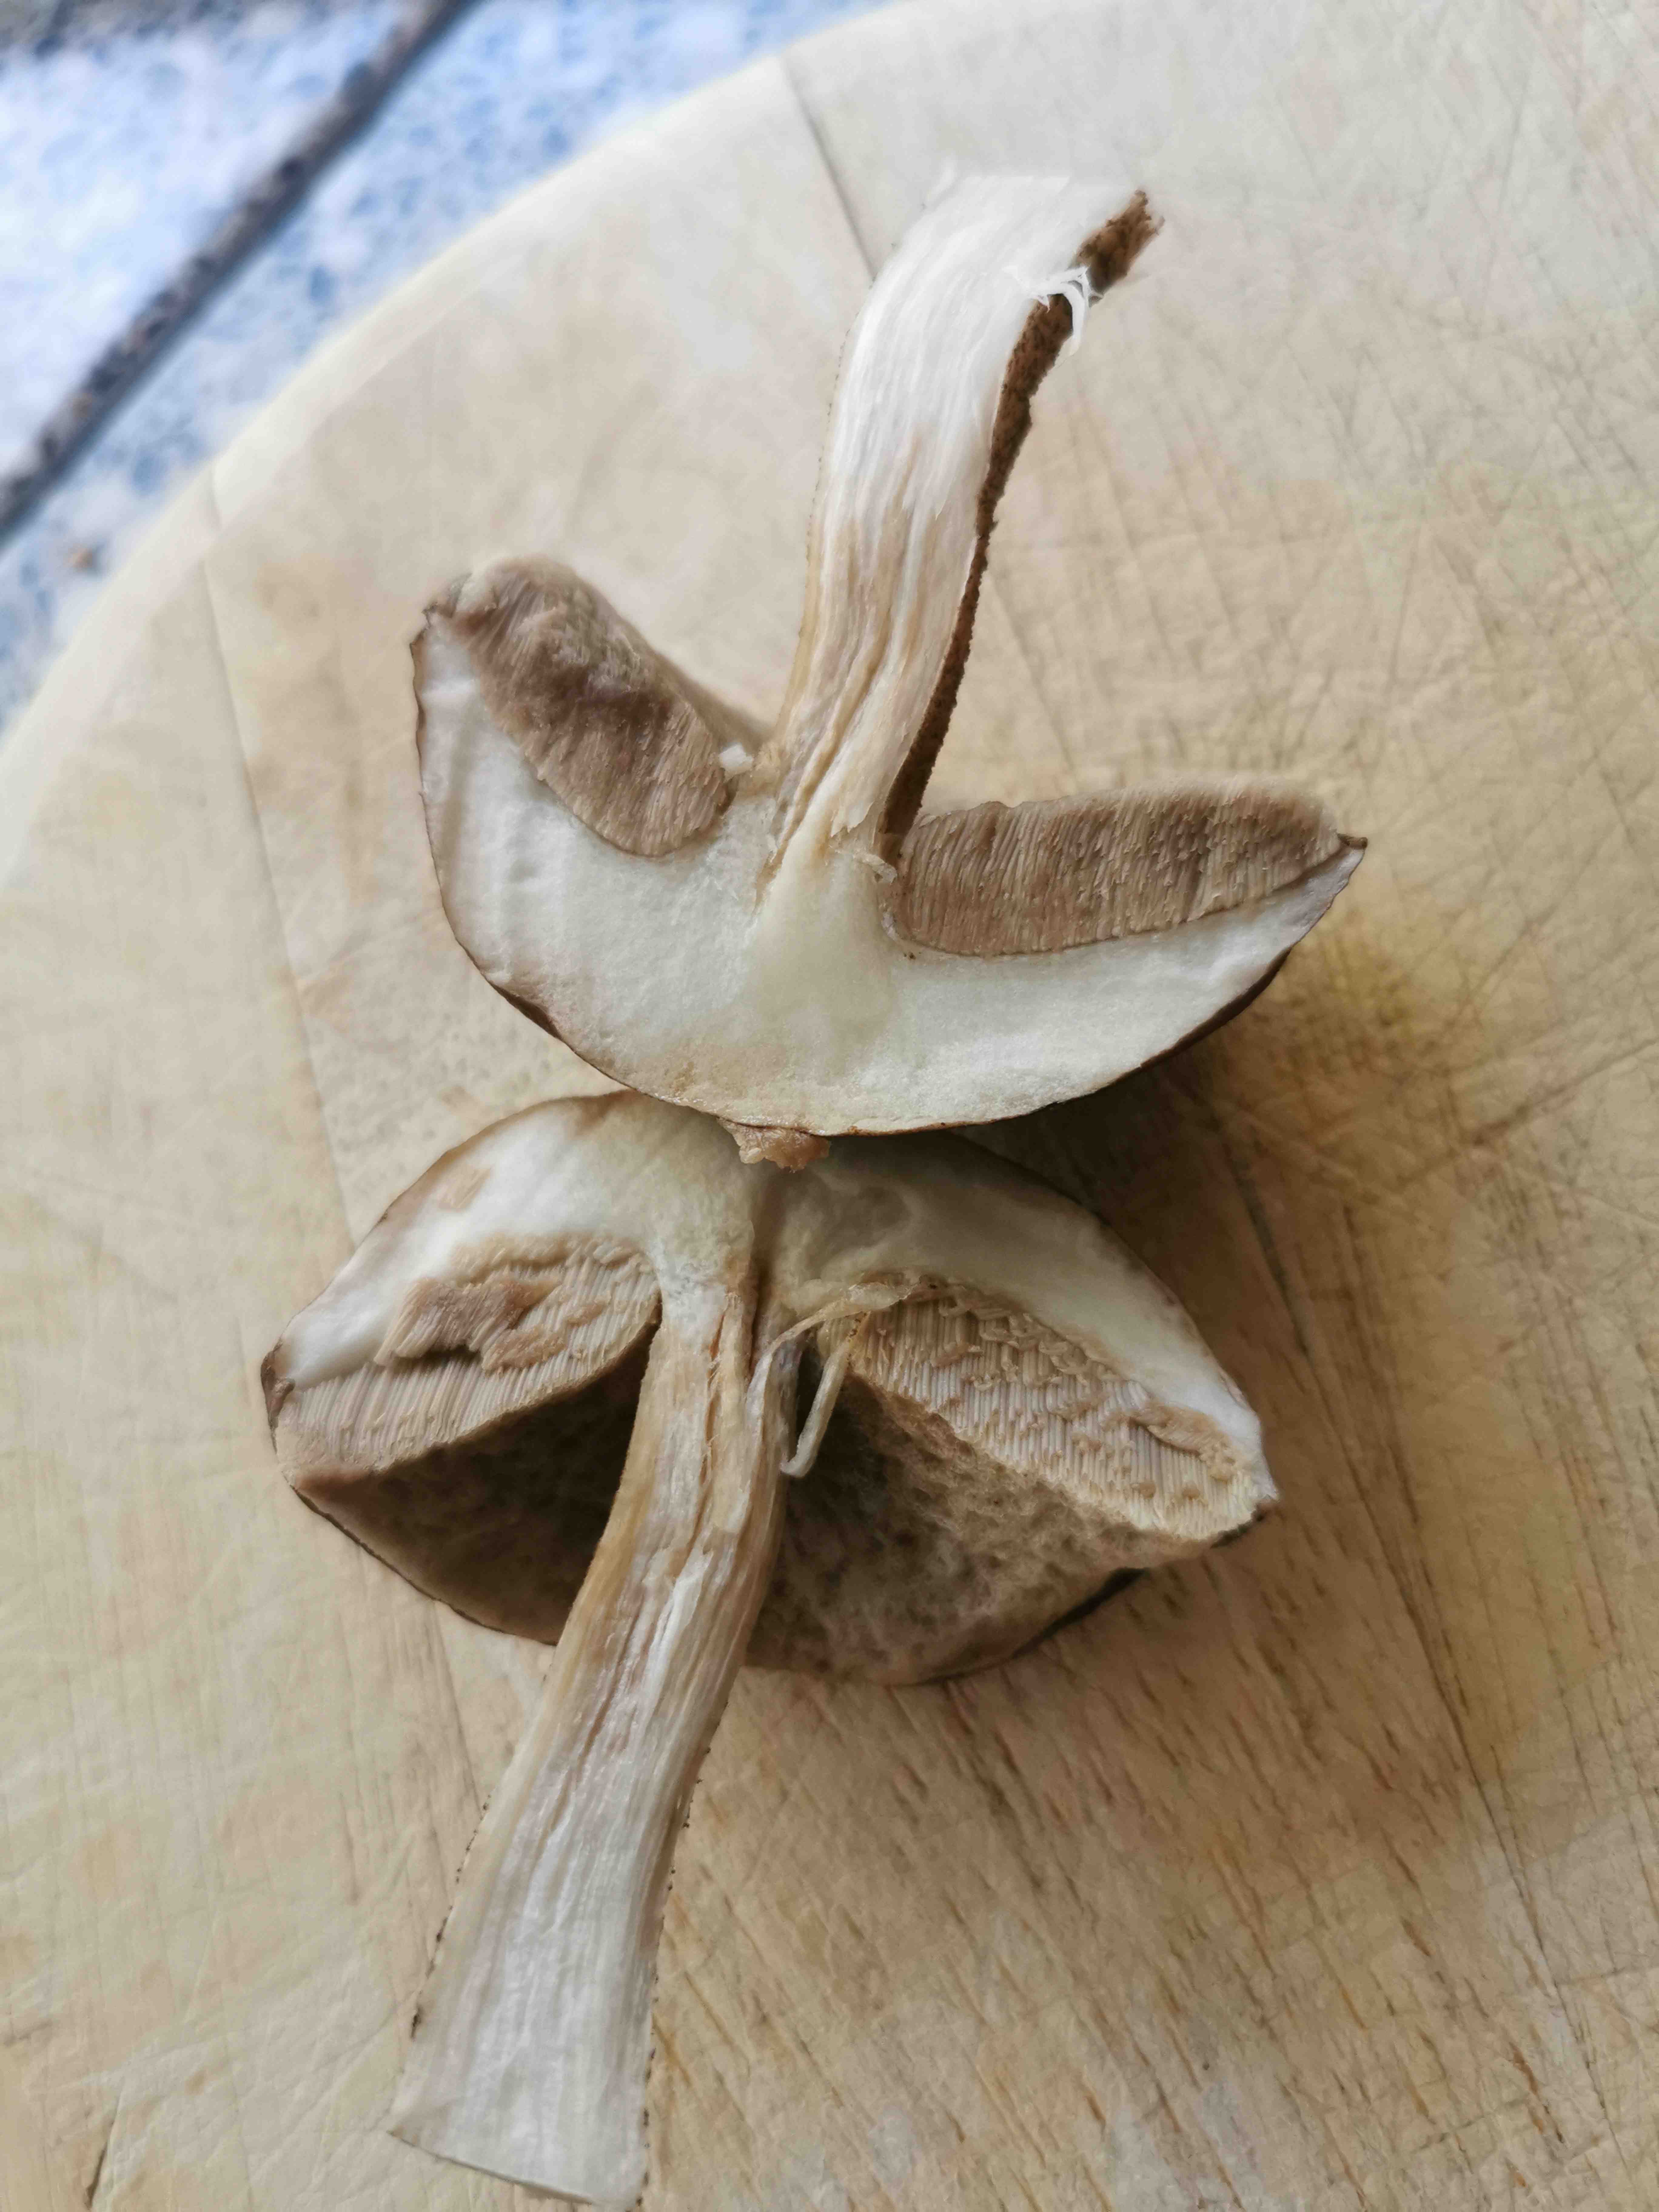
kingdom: Fungi
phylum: Basidiomycota
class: Agaricomycetes
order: Boletales
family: Boletaceae
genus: Leccinum
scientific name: Leccinum
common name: skælrørhat
